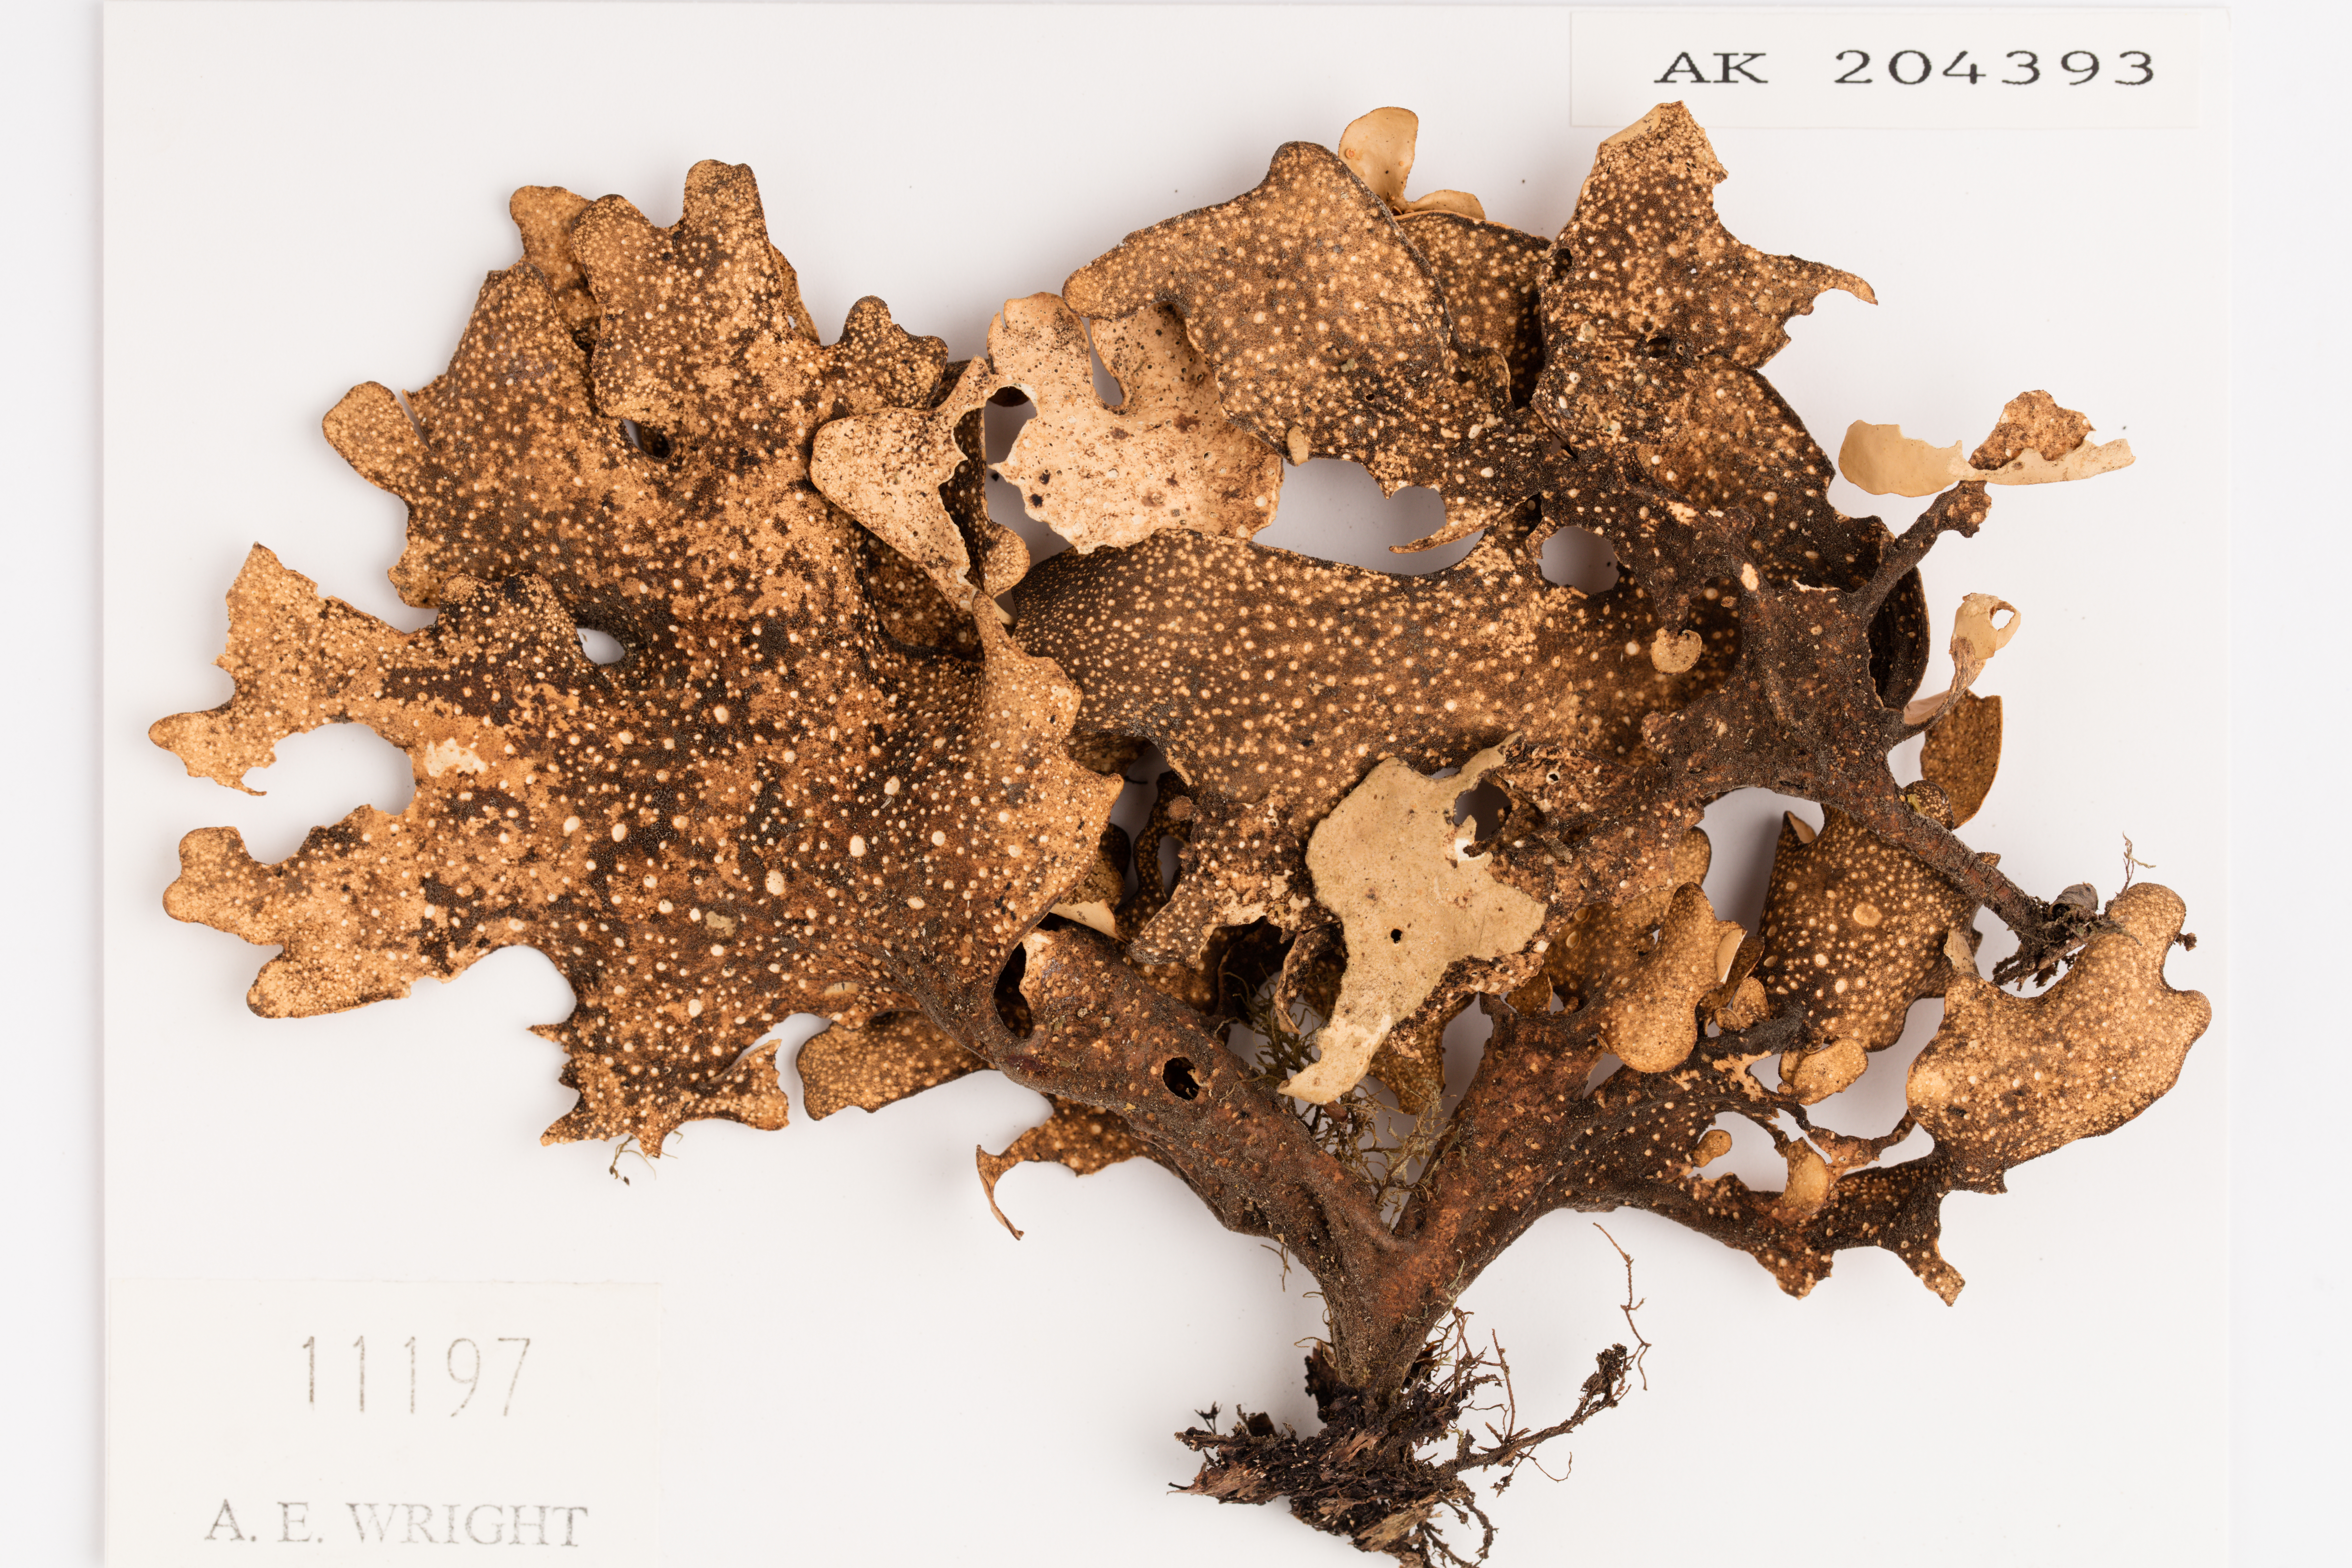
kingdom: Fungi
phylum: Ascomycota
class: Lecanoromycetes
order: Peltigerales
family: Lobariaceae
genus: Sticta
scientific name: Sticta latifrons
